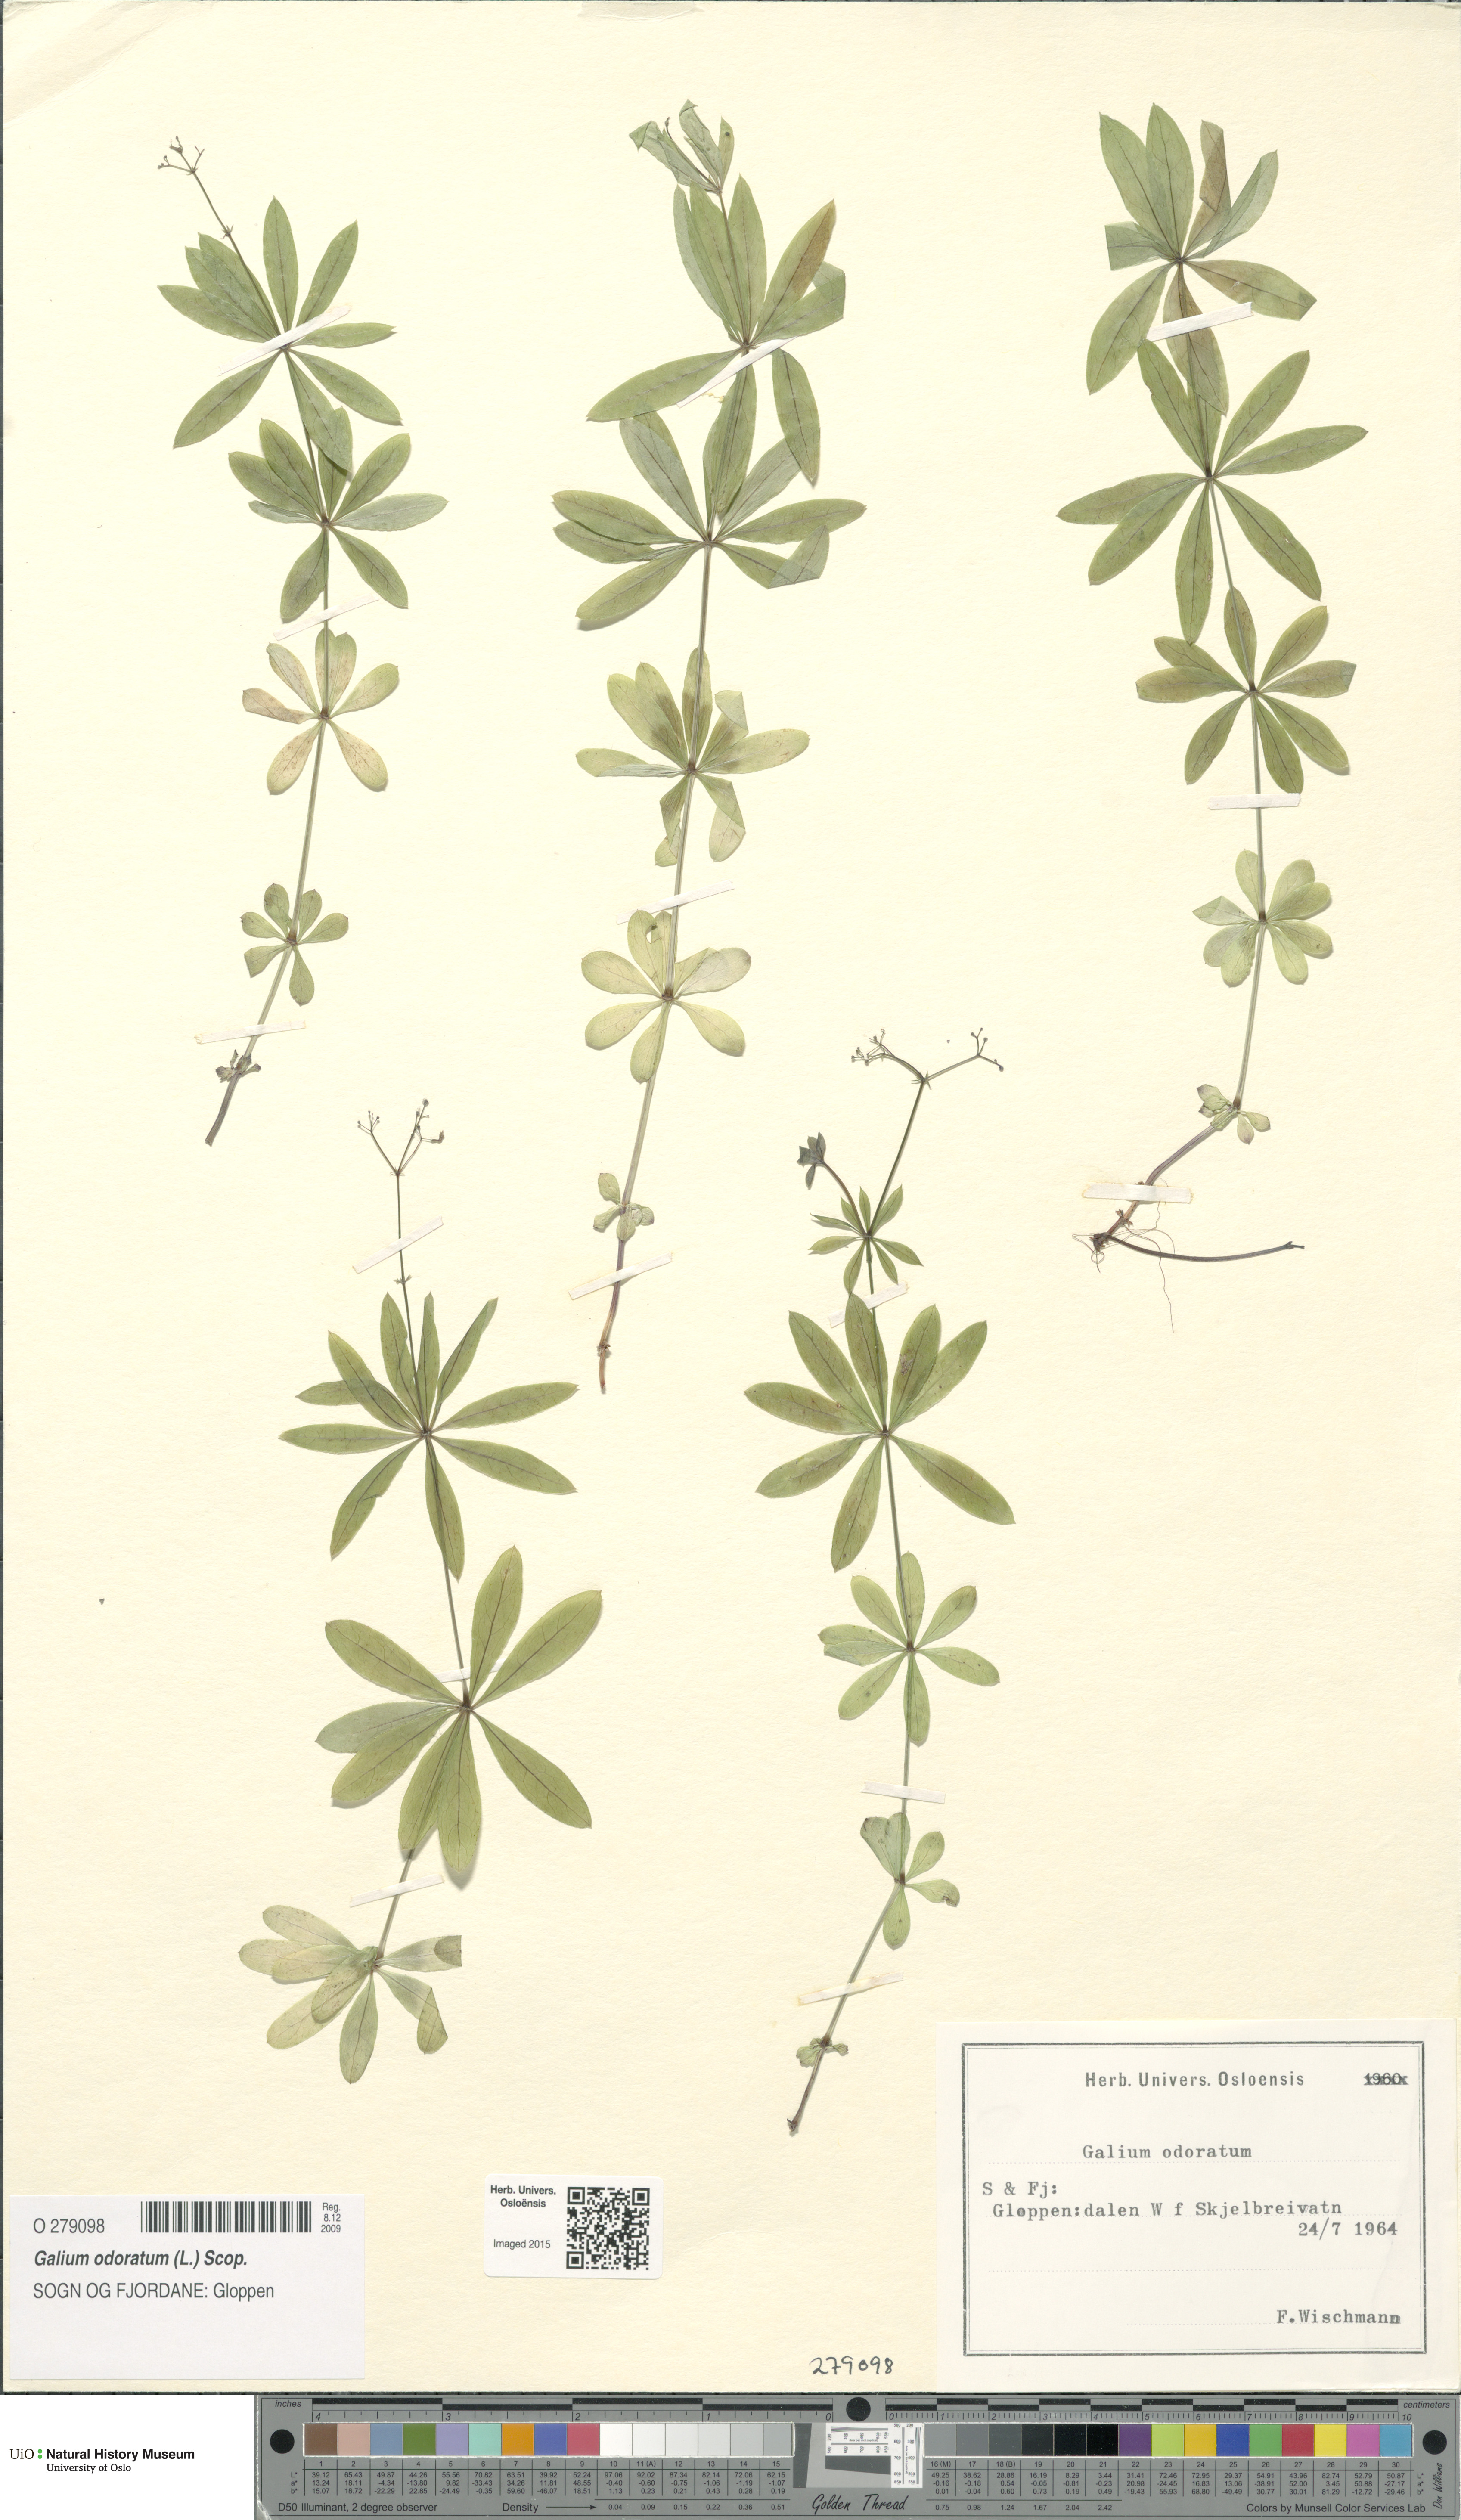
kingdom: Plantae
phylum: Tracheophyta
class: Magnoliopsida
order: Gentianales
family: Rubiaceae
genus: Galium
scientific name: Galium odoratum
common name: Sweet woodruff
